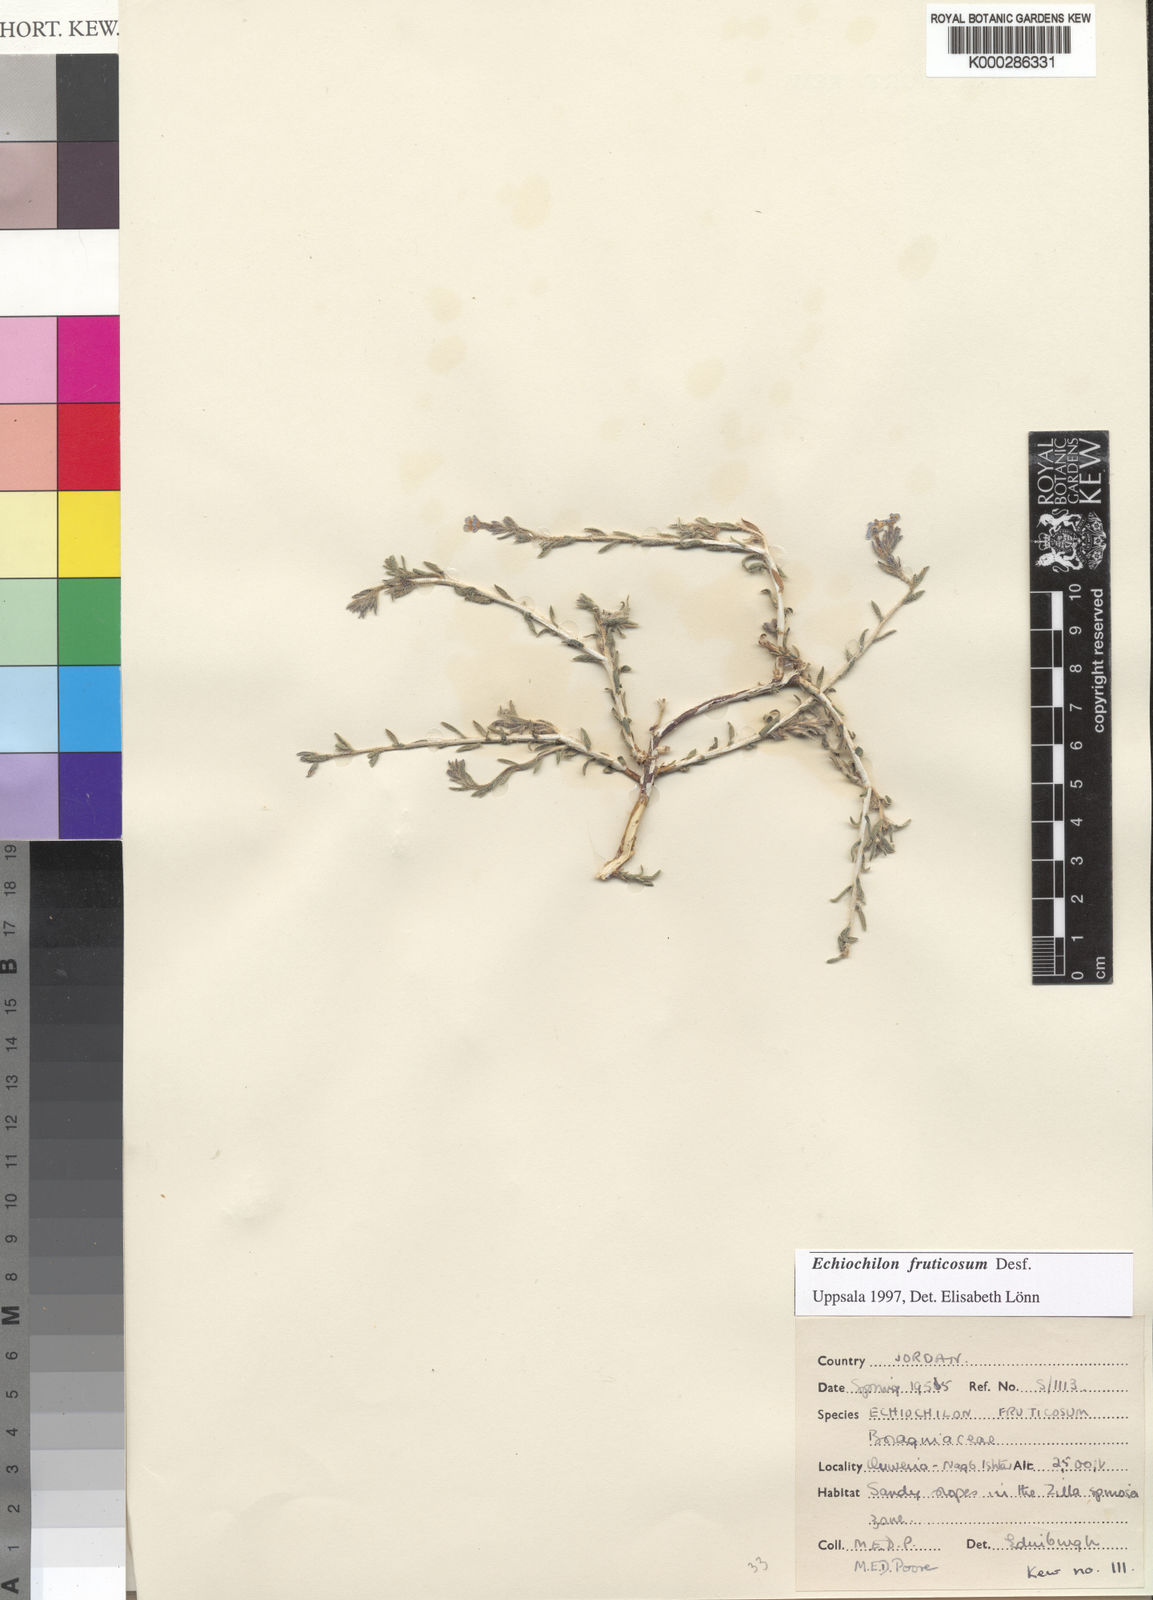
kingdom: Plantae
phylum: Tracheophyta
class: Magnoliopsida
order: Boraginales
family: Boraginaceae
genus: Echiochilon
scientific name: Echiochilon fruticosum
